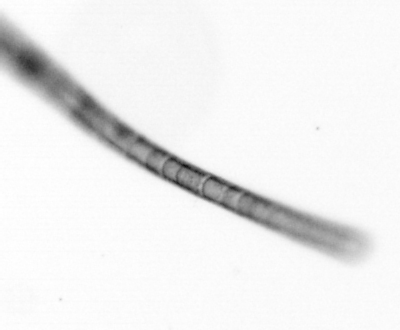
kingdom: Chromista
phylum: Ochrophyta
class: Bacillariophyceae
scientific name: Bacillariophyceae
